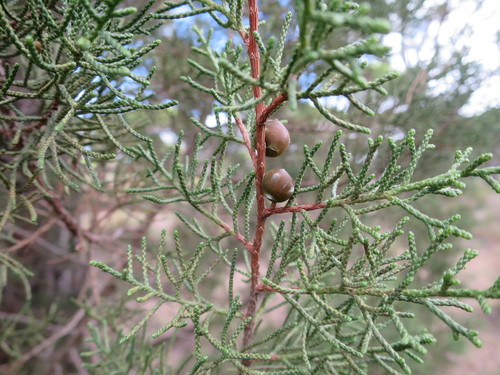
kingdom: Plantae
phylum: Tracheophyta
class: Pinopsida
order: Pinales
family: Cupressaceae
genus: Juniperus
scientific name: Juniperus phoenicea
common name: Phoenician juniper
